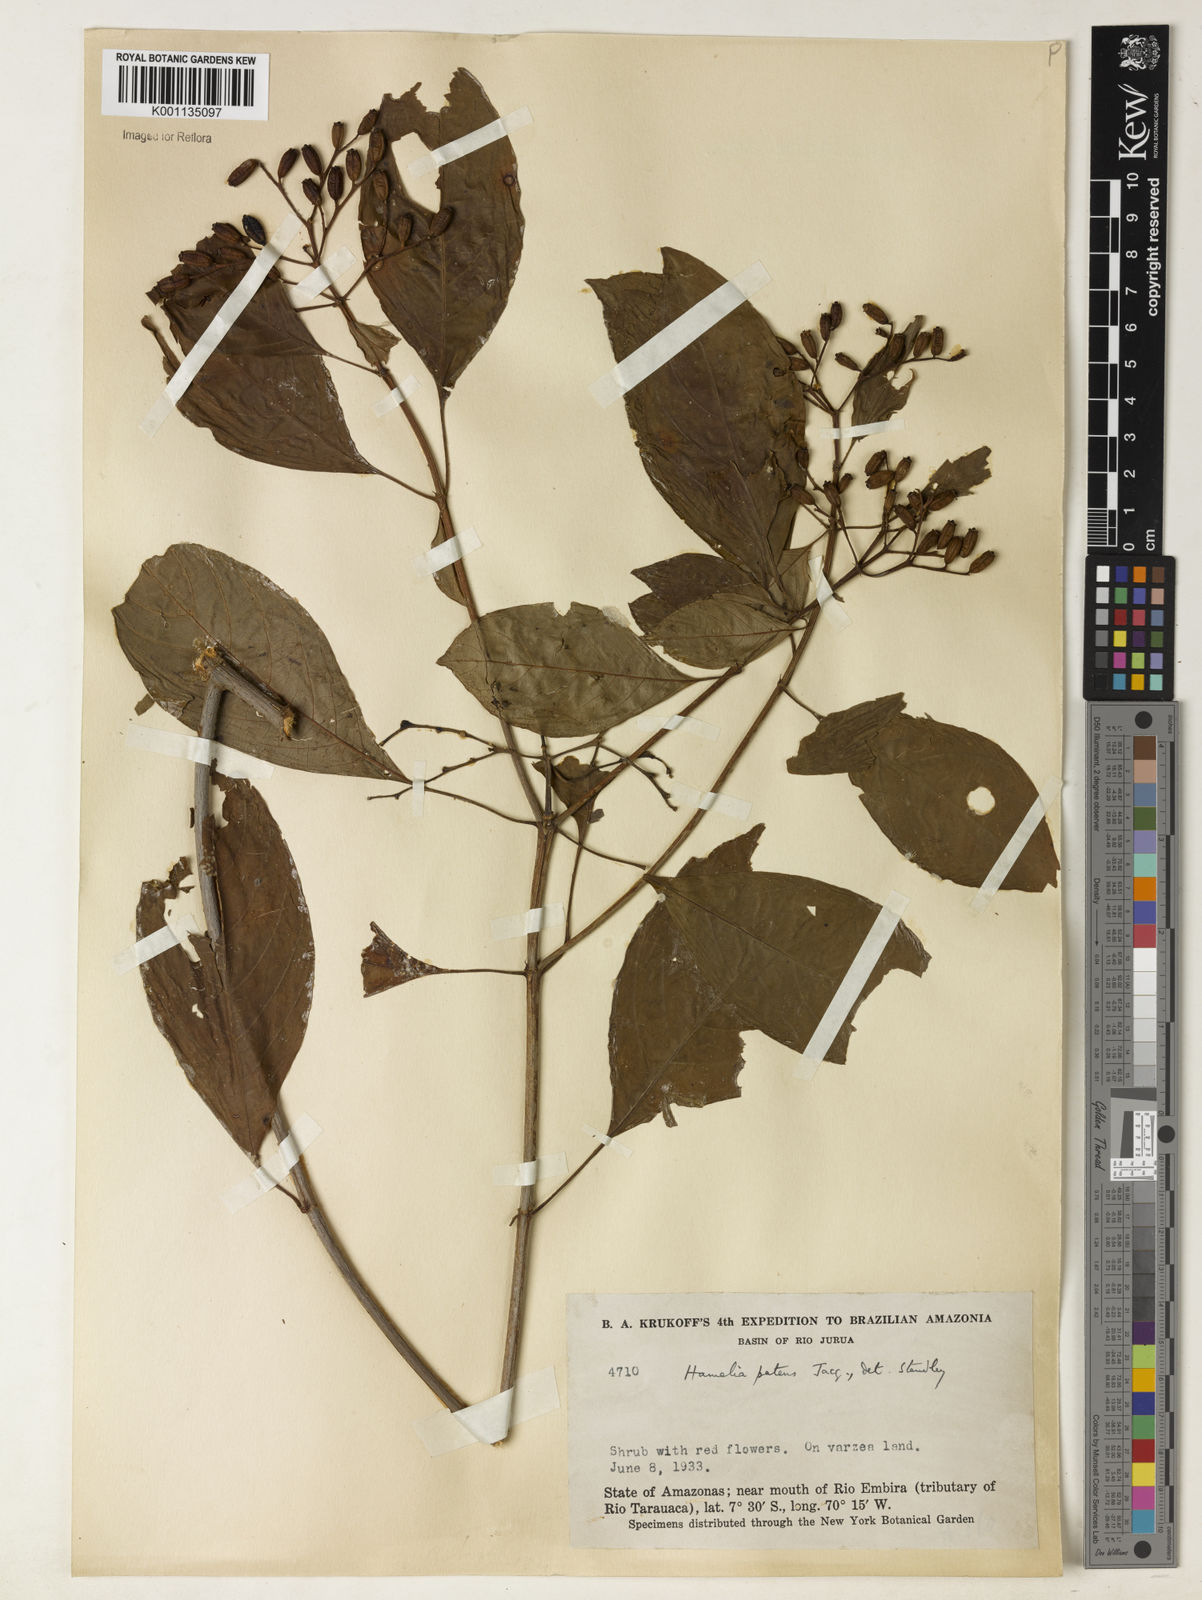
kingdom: Plantae
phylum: Tracheophyta
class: Magnoliopsida
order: Gentianales
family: Rubiaceae
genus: Hamelia
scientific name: Hamelia patens
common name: Redhead
